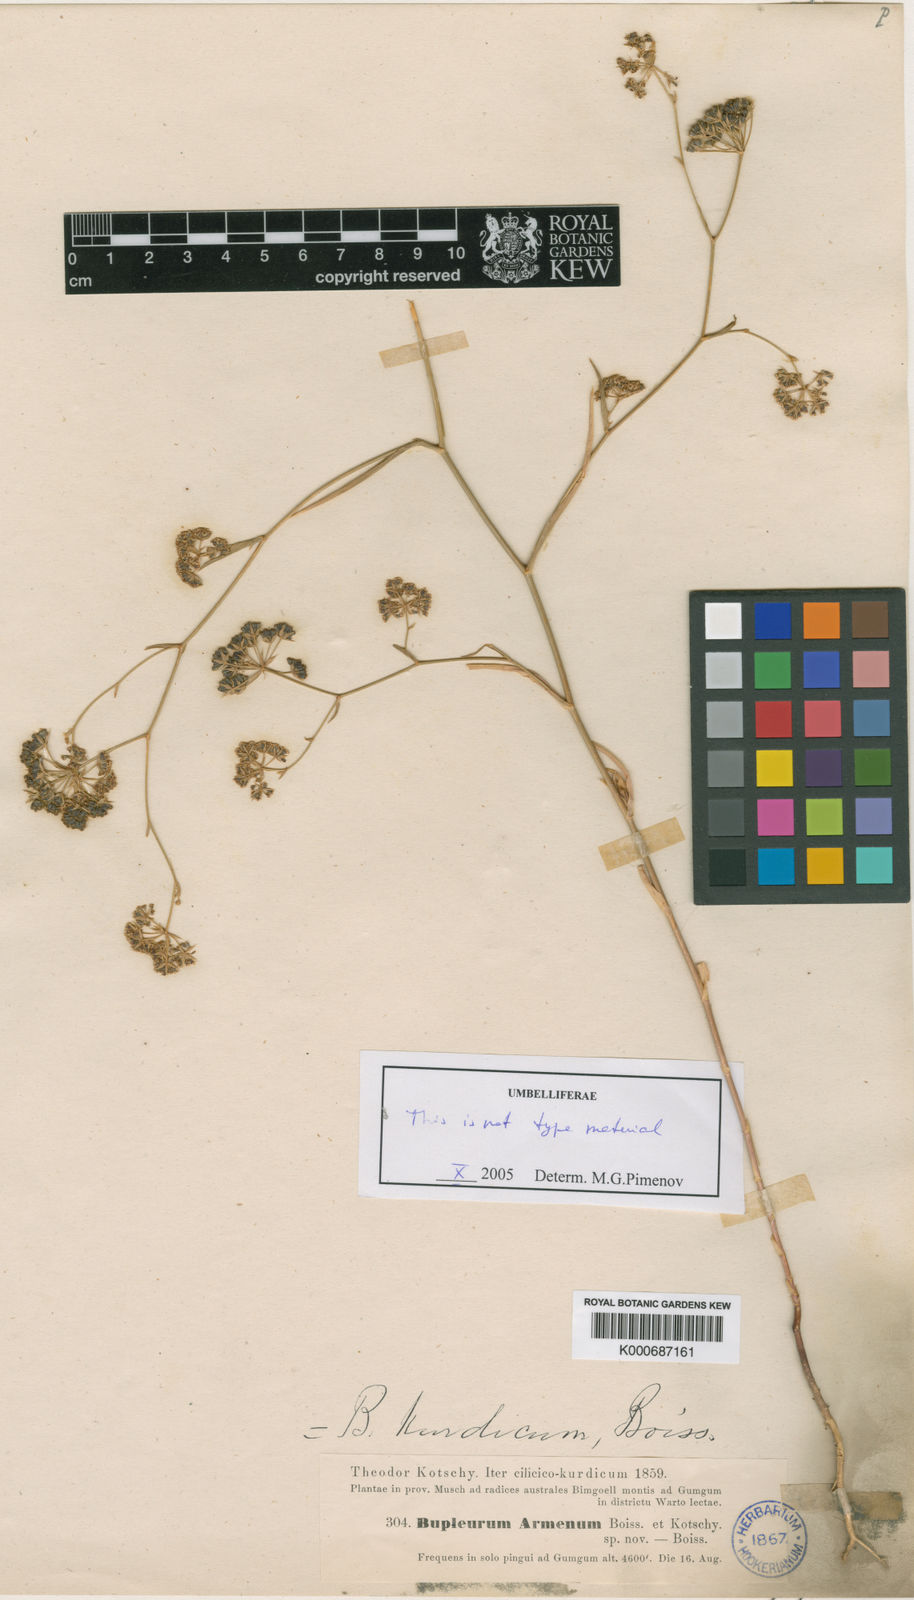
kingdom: Plantae
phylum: Tracheophyta
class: Magnoliopsida
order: Apiales
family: Apiaceae
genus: Bupleurum
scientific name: Bupleurum kurdicum
